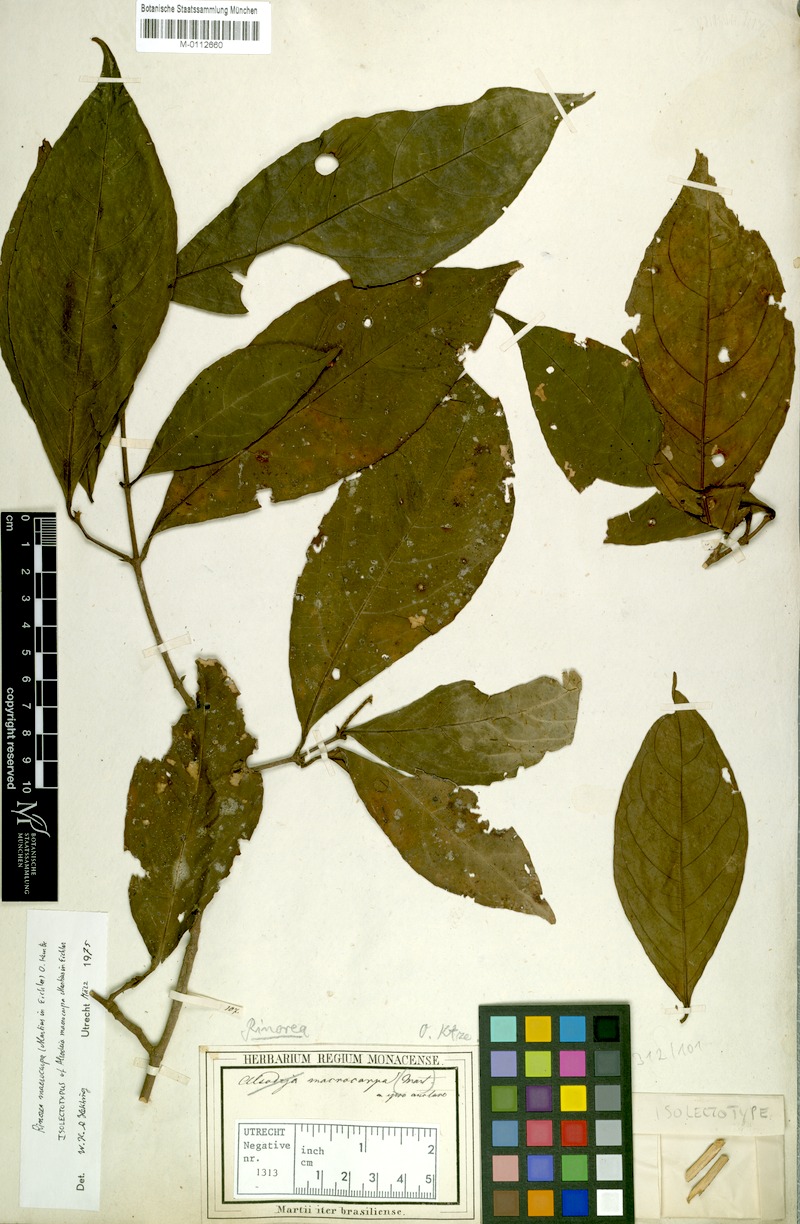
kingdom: Plantae
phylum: Tracheophyta
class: Magnoliopsida
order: Malpighiales
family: Violaceae
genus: Rinorea
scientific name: Rinorea macrocarpa
